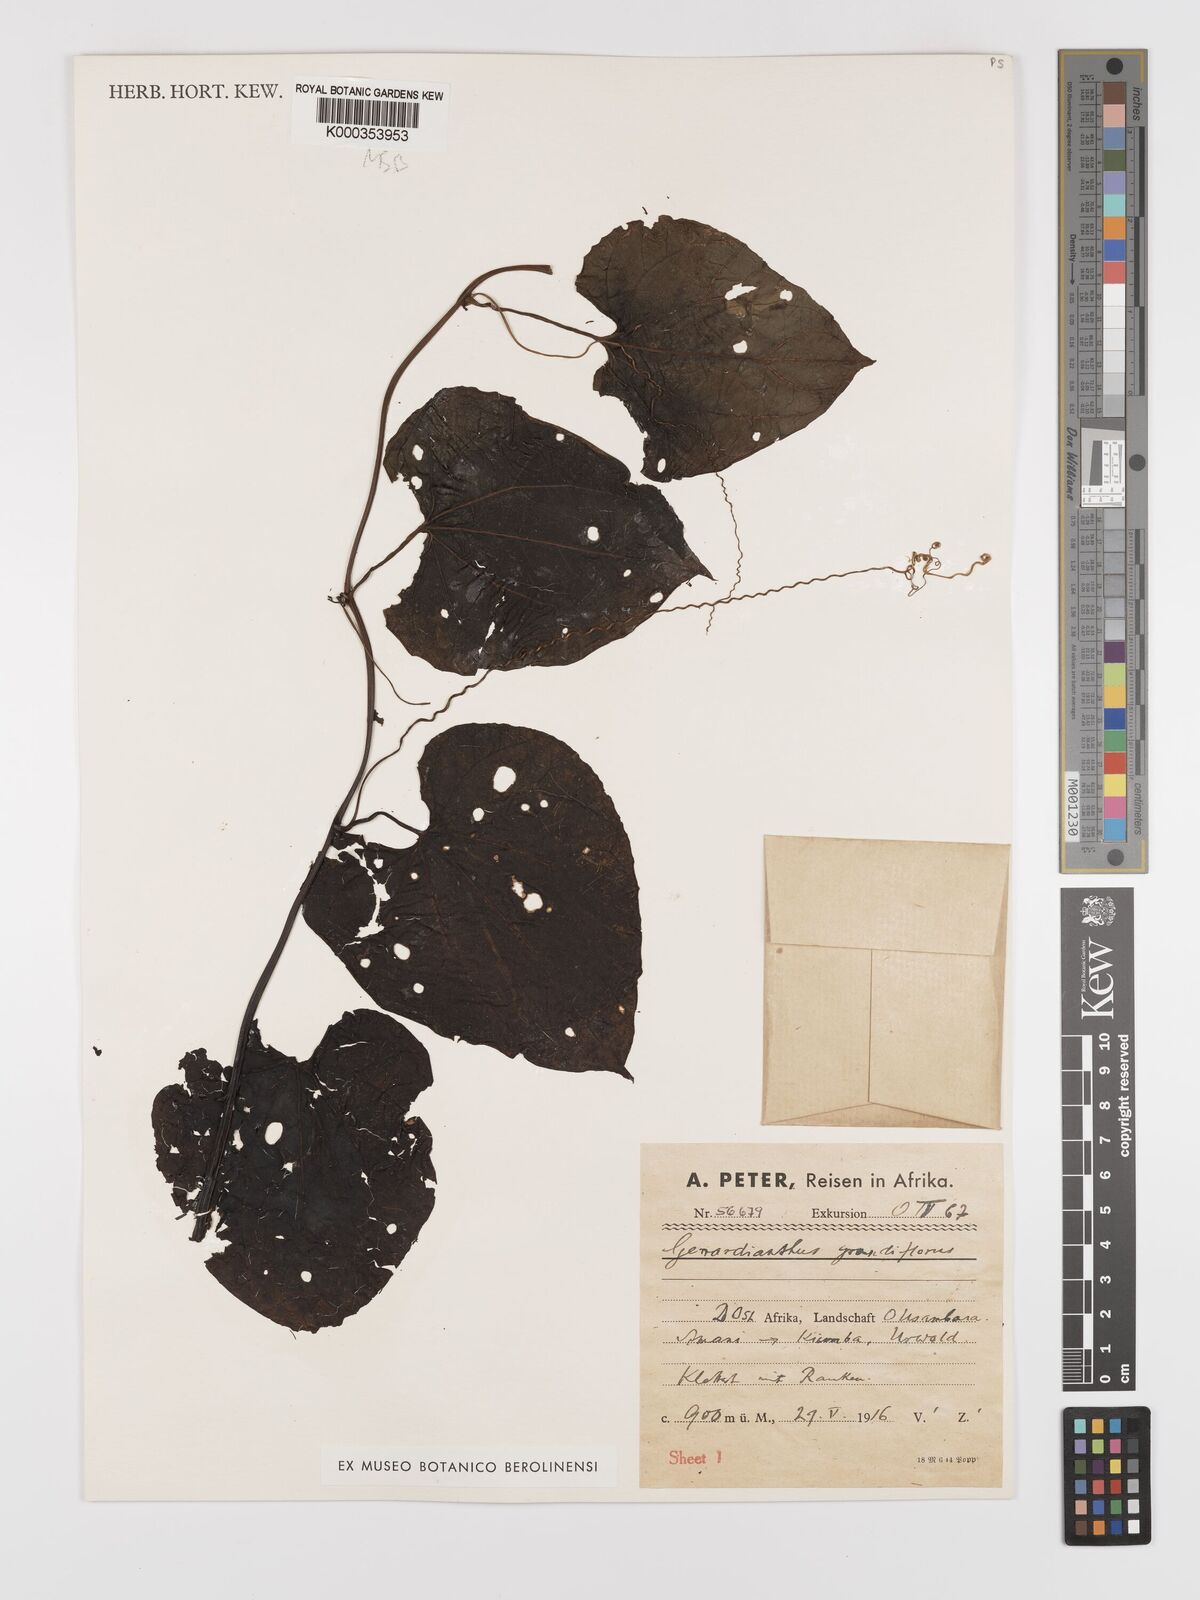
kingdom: Plantae
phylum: Tracheophyta
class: Magnoliopsida
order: Cucurbitales
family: Cucurbitaceae
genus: Gerrardanthus
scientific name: Gerrardanthus
